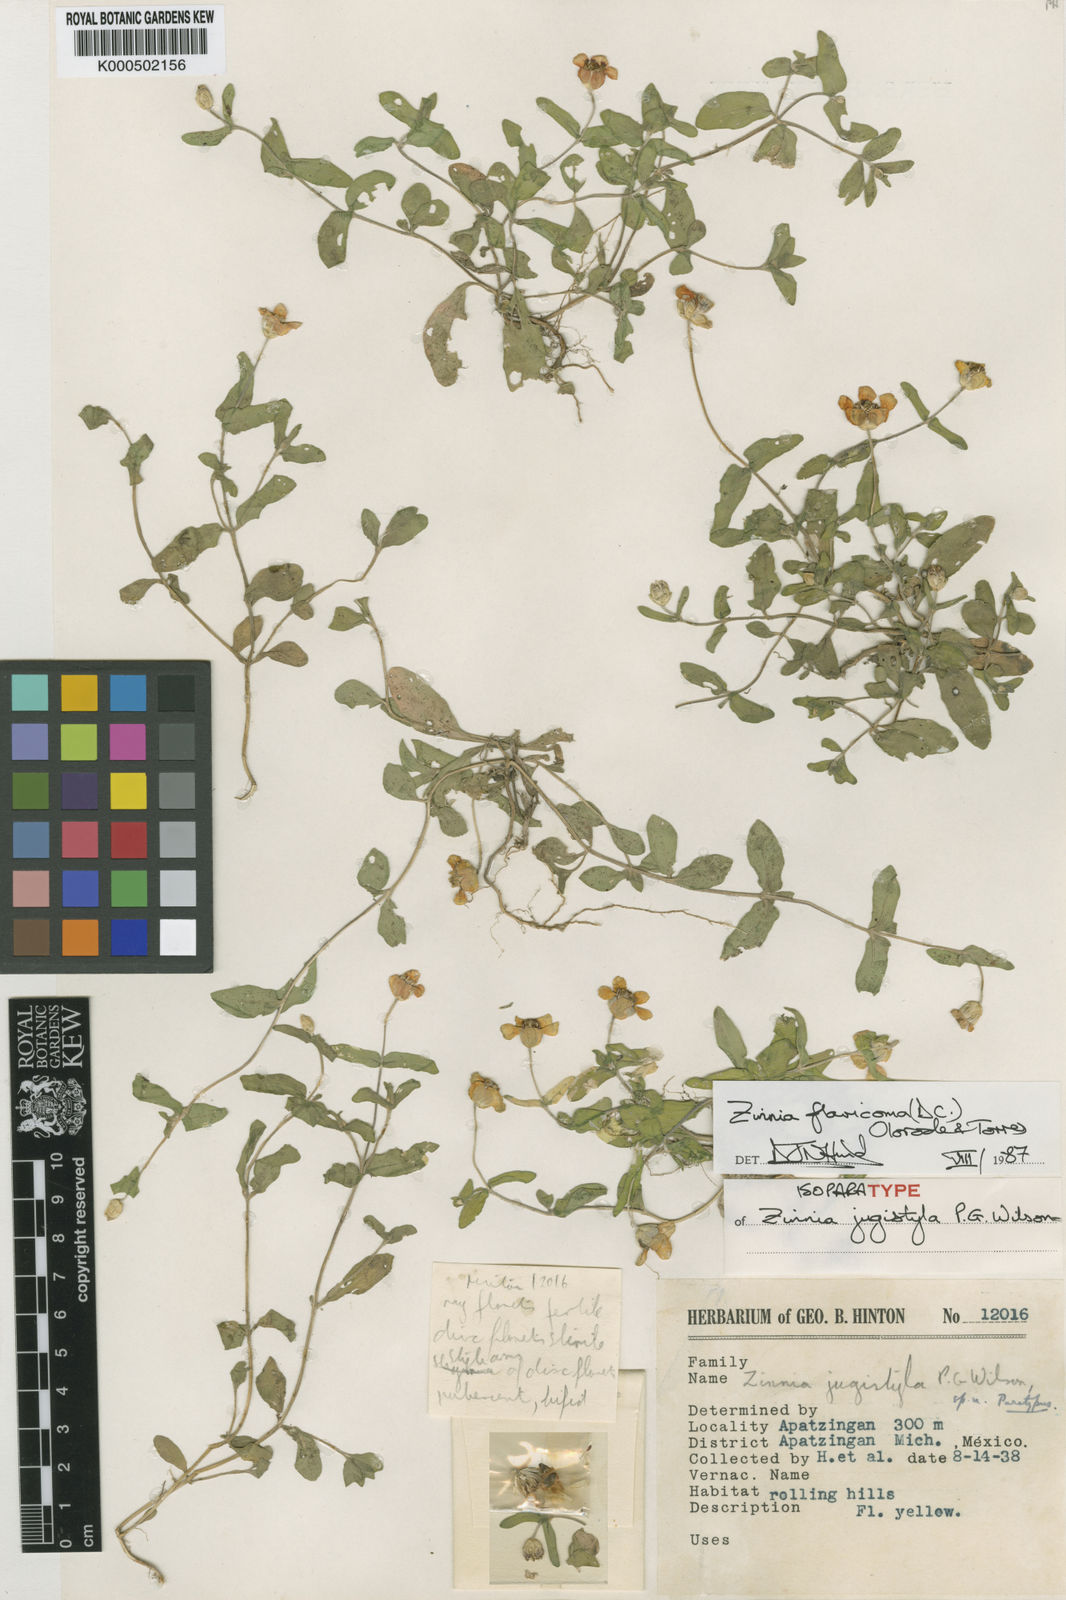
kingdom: Plantae
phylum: Tracheophyta
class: Magnoliopsida
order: Asterales
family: Asteraceae
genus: Zinnia
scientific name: Zinnia flavicoma
